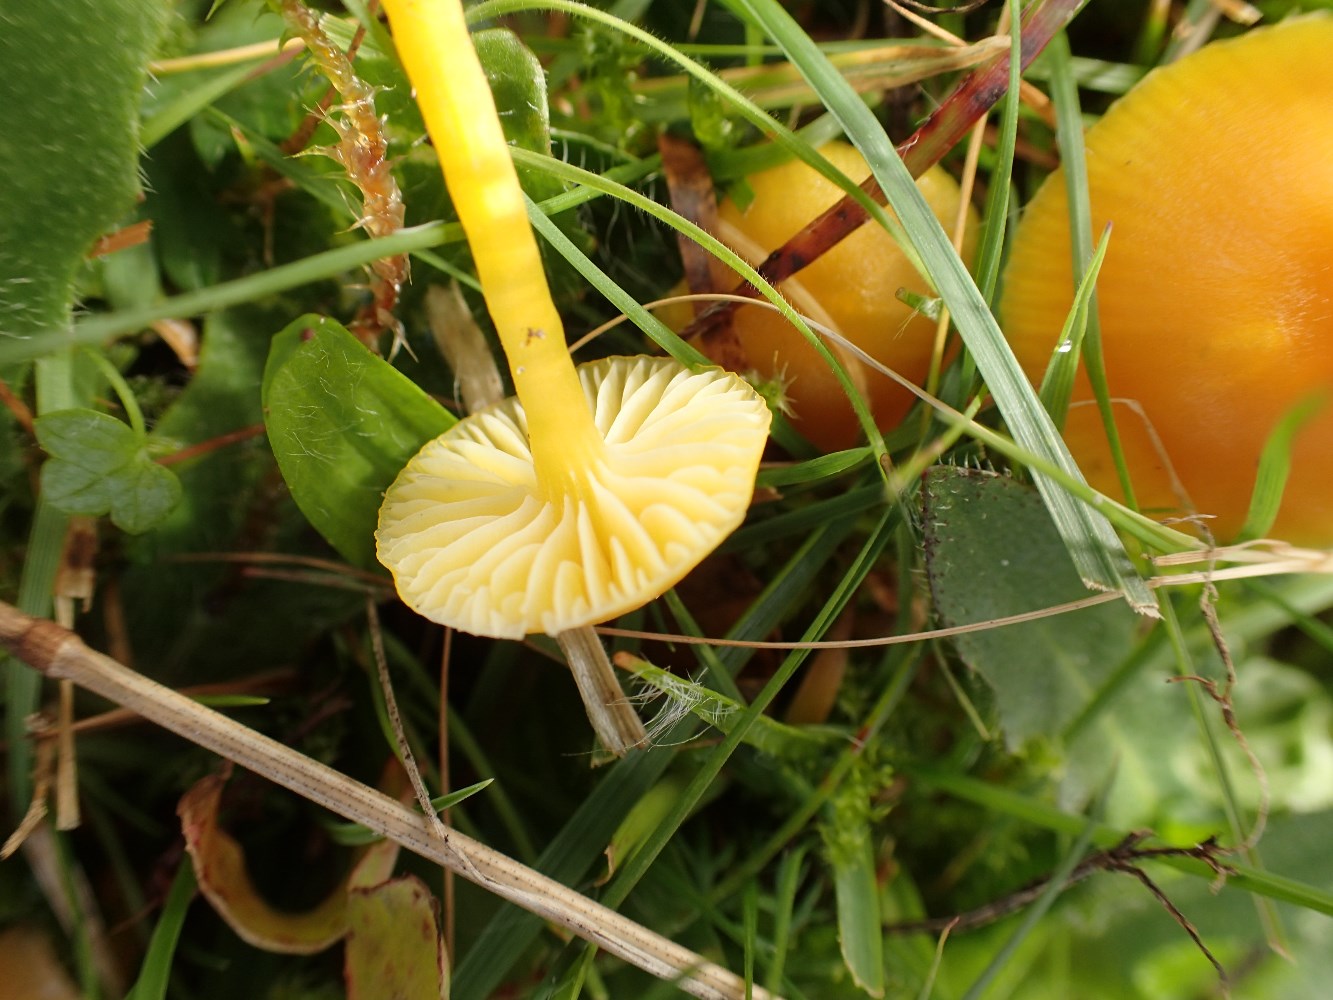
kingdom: Fungi
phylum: Basidiomycota
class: Agaricomycetes
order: Agaricales
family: Hygrophoraceae
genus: Hygrocybe
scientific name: Hygrocybe ceracea
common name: voksgul vokshat
